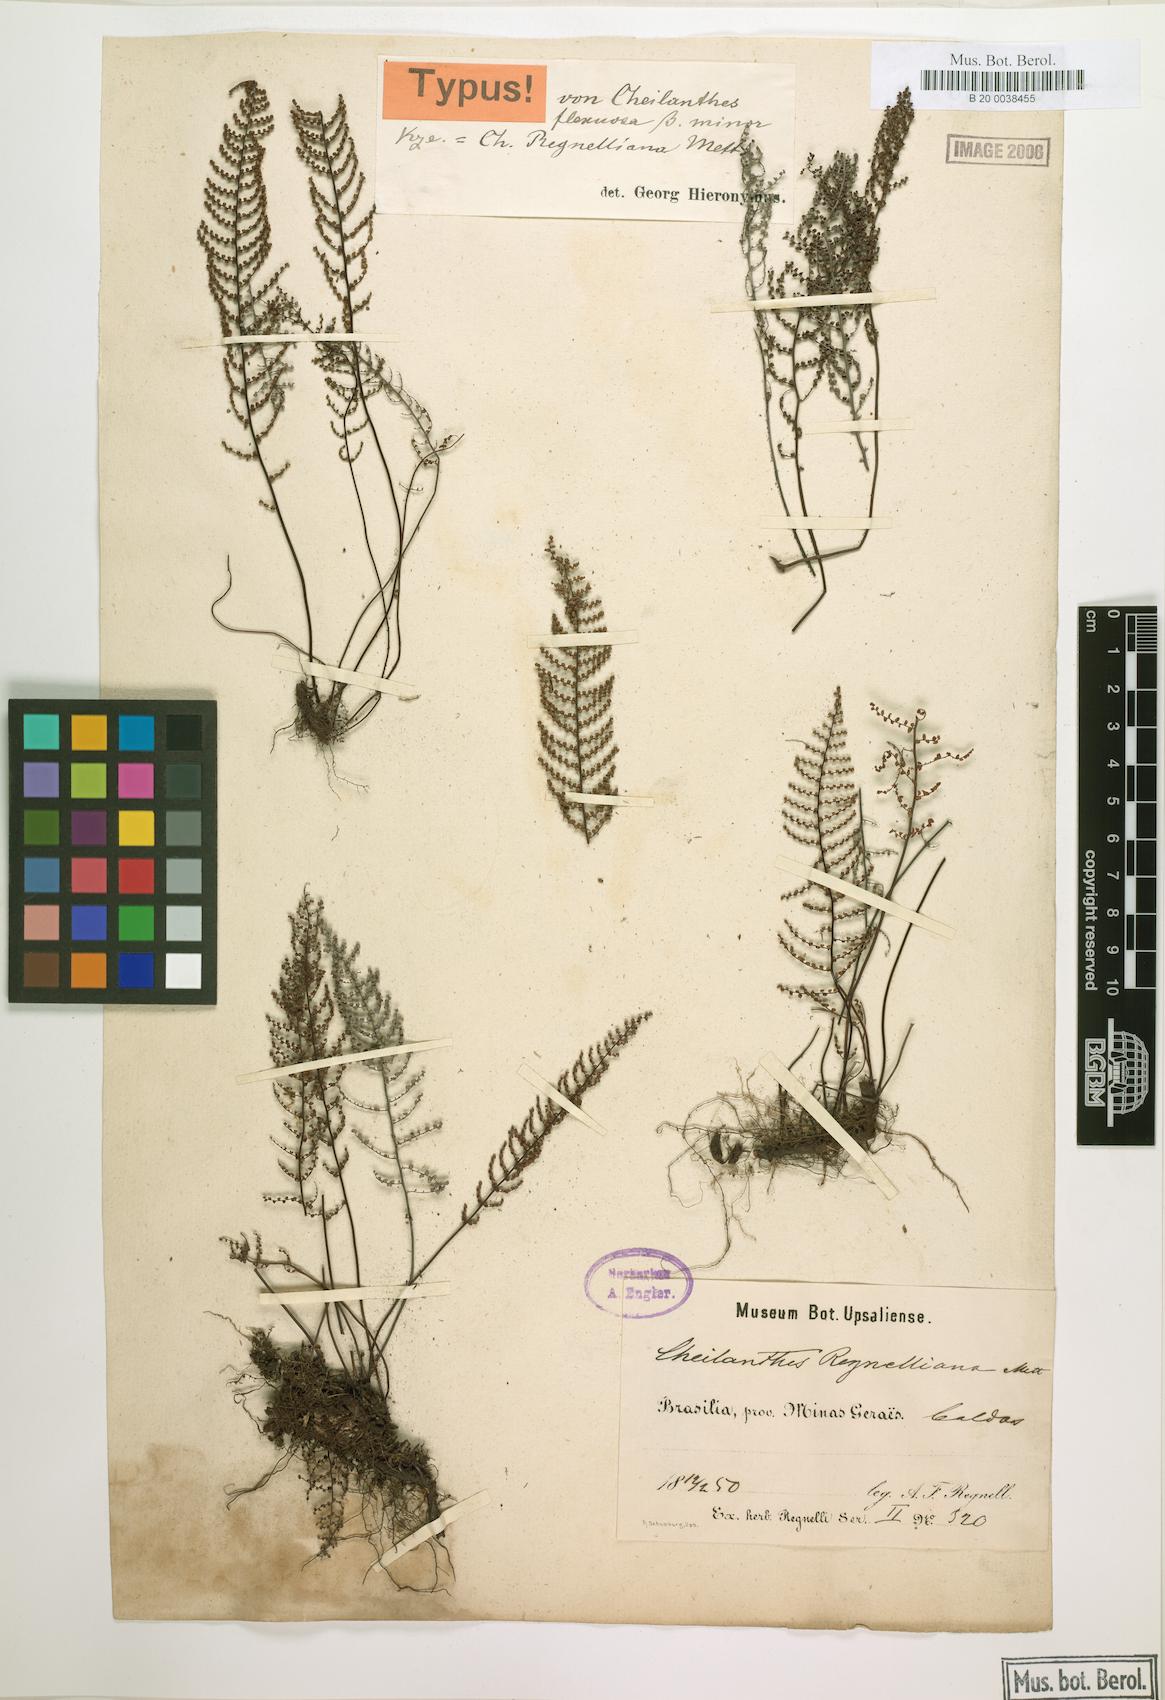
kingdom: Plantae
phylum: Tracheophyta
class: Polypodiopsida
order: Polypodiales
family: Pteridaceae
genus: Pellaea
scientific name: Pellaea regnelliana
